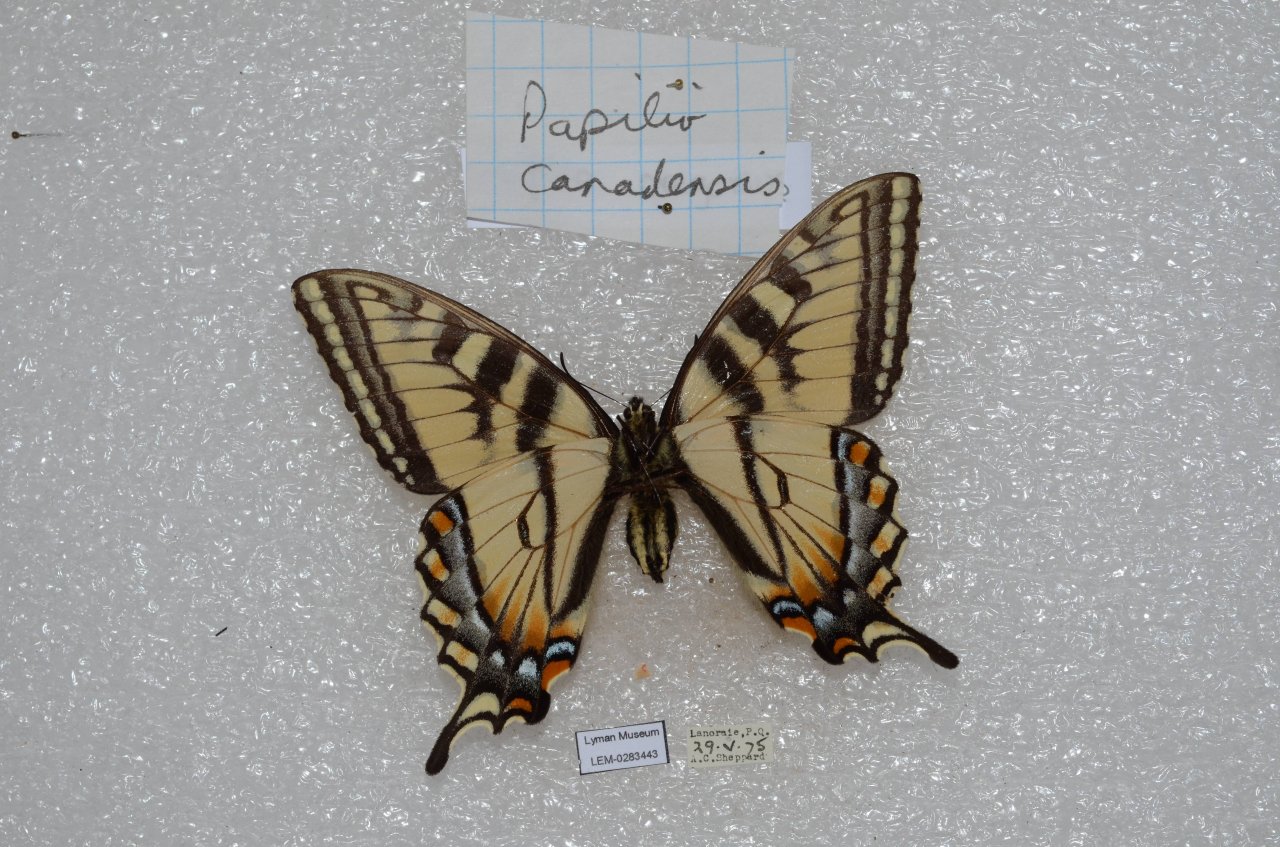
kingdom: Animalia
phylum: Arthropoda
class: Insecta
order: Lepidoptera
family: Papilionidae
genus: Pterourus
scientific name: Pterourus canadensis
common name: Canadian Tiger Swallowtail
